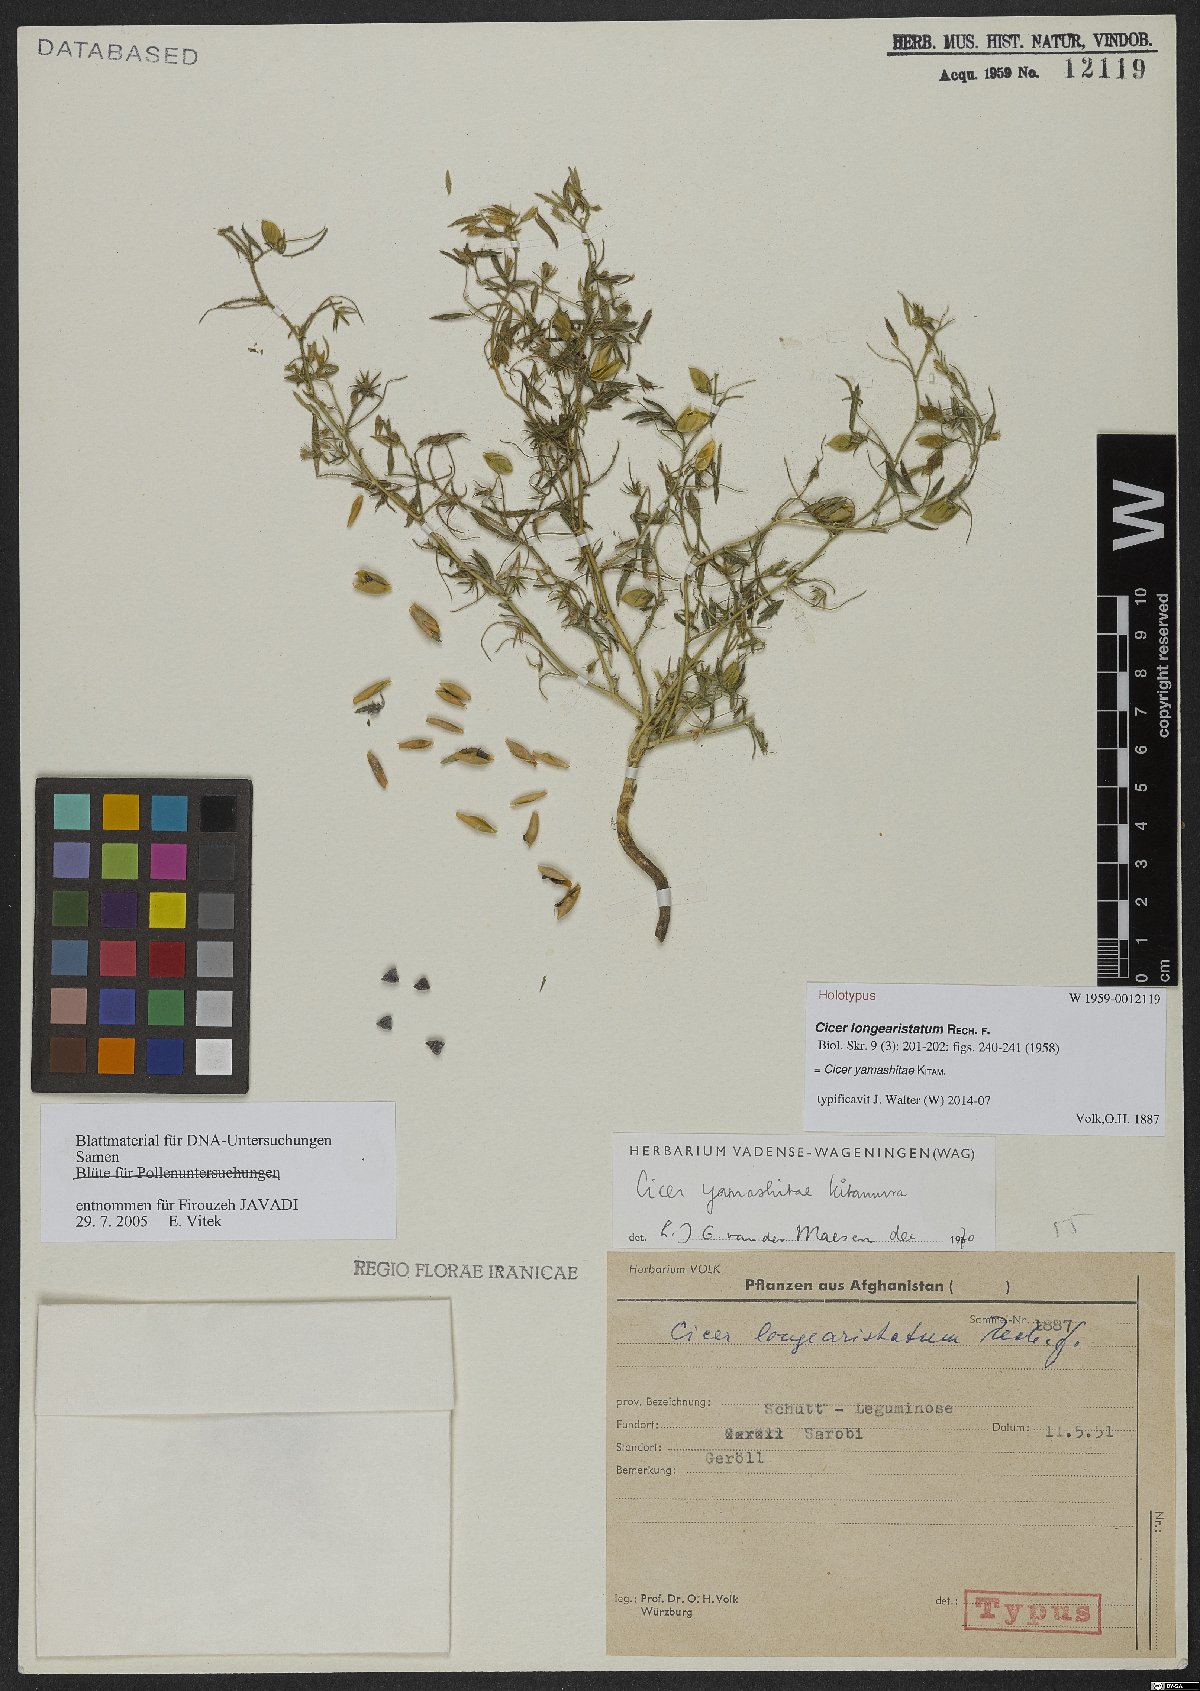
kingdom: Plantae
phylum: Tracheophyta
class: Magnoliopsida
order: Fabales
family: Fabaceae
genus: Cicer
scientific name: Cicer yamashitae
